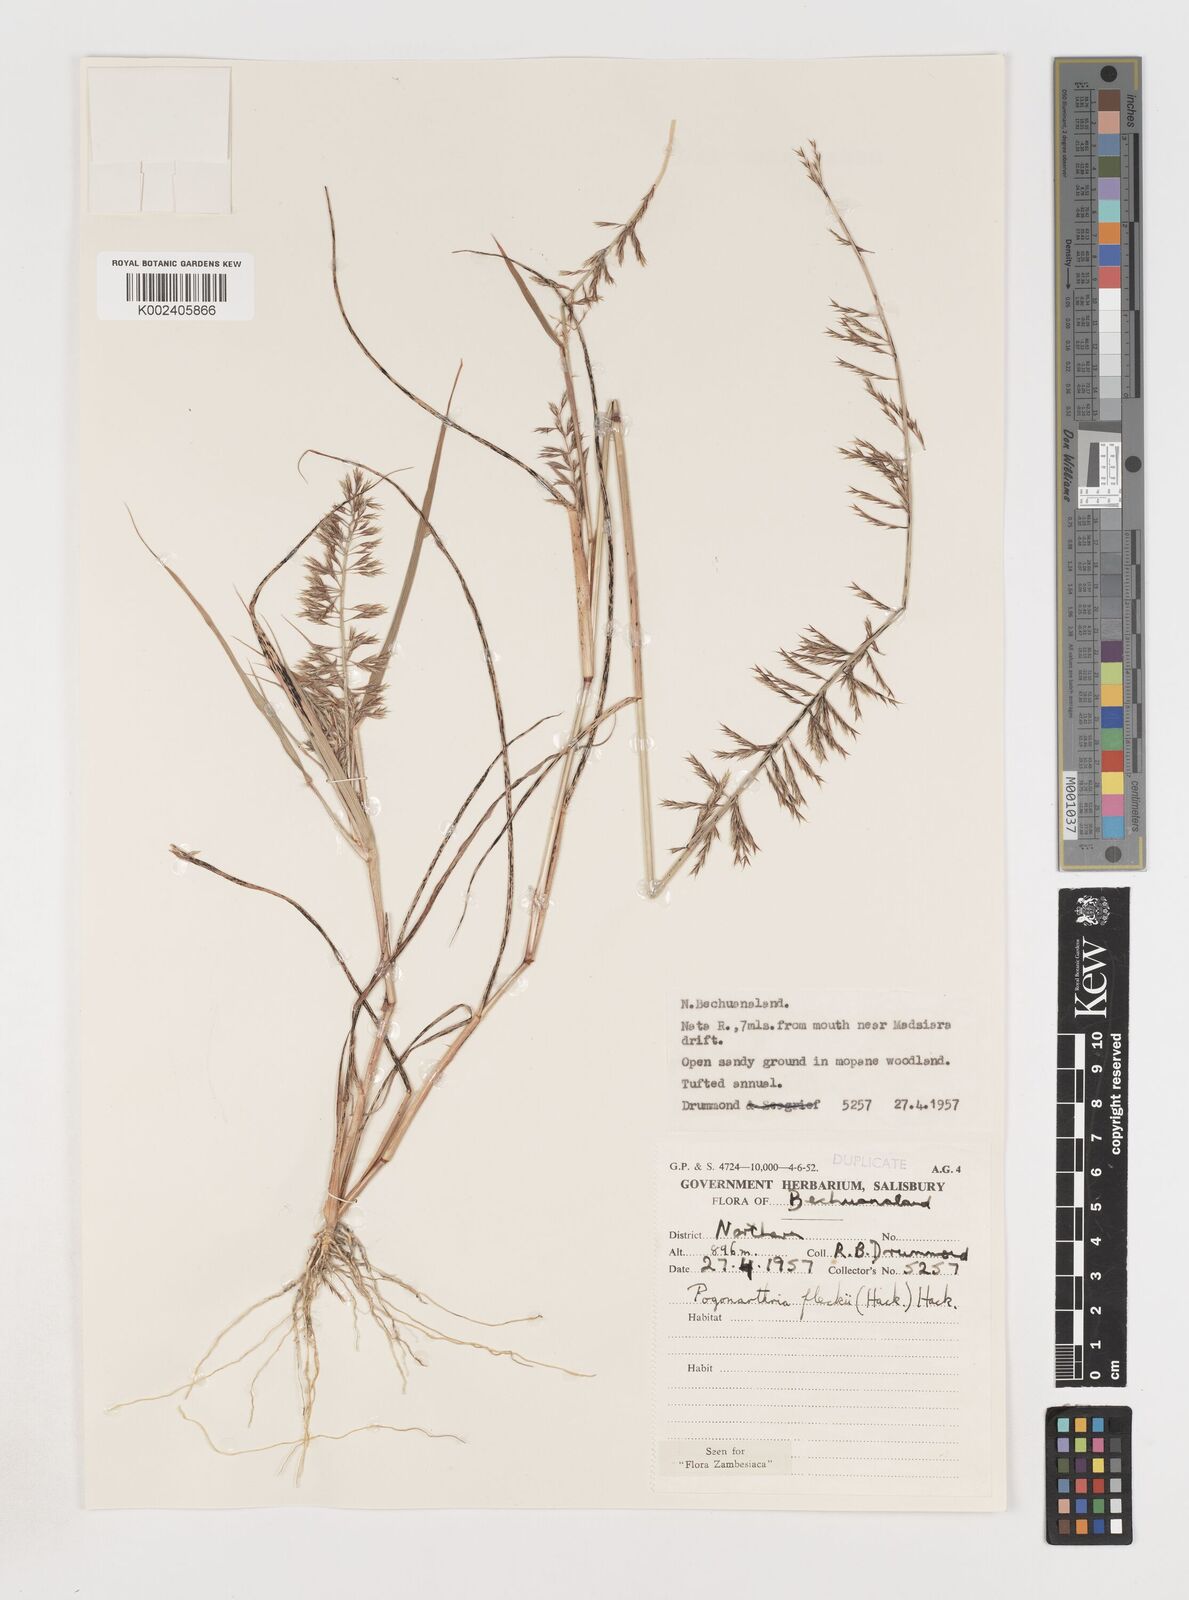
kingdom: Plantae
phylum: Tracheophyta
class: Liliopsida
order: Poales
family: Poaceae
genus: Pogonarthria
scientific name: Pogonarthria fleckii
